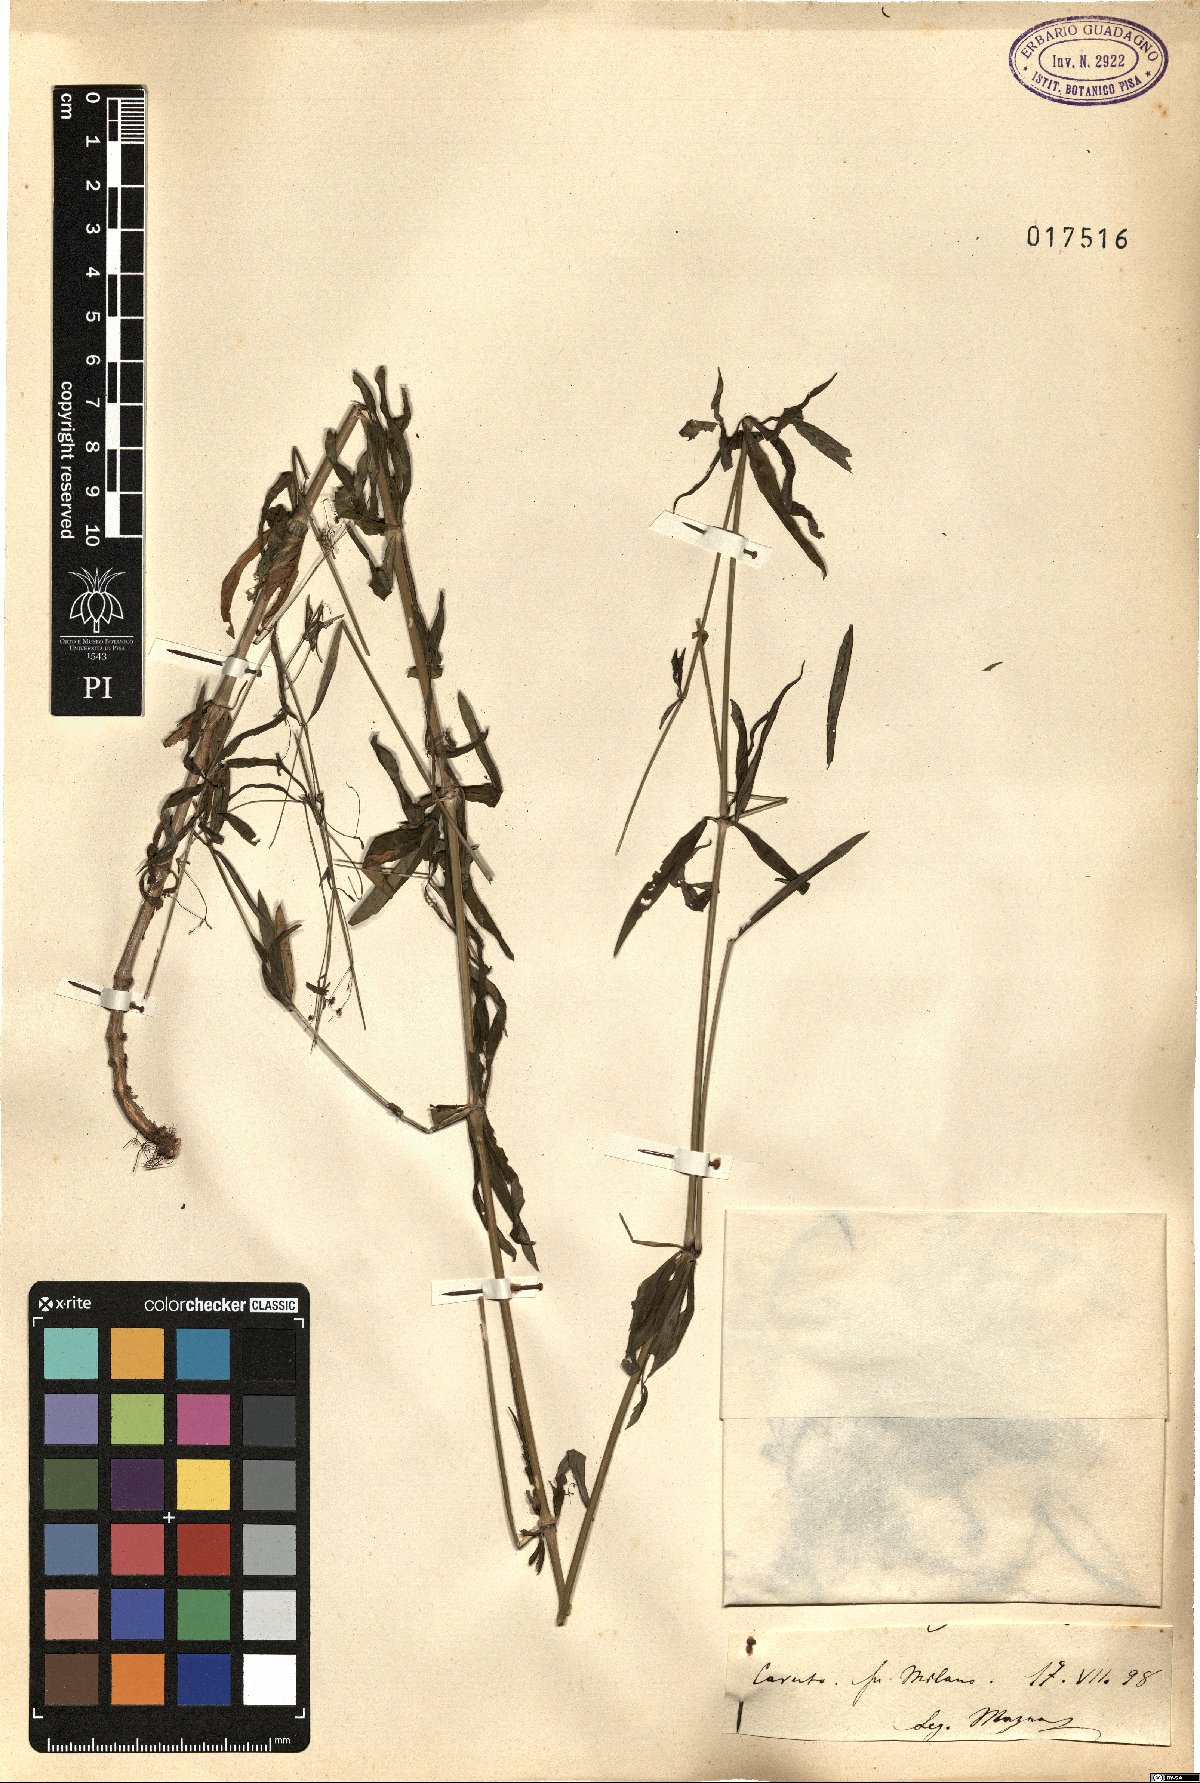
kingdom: Plantae
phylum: Tracheophyta
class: Magnoliopsida
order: Gentianales
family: Rubiaceae
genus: Galium
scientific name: Galium
